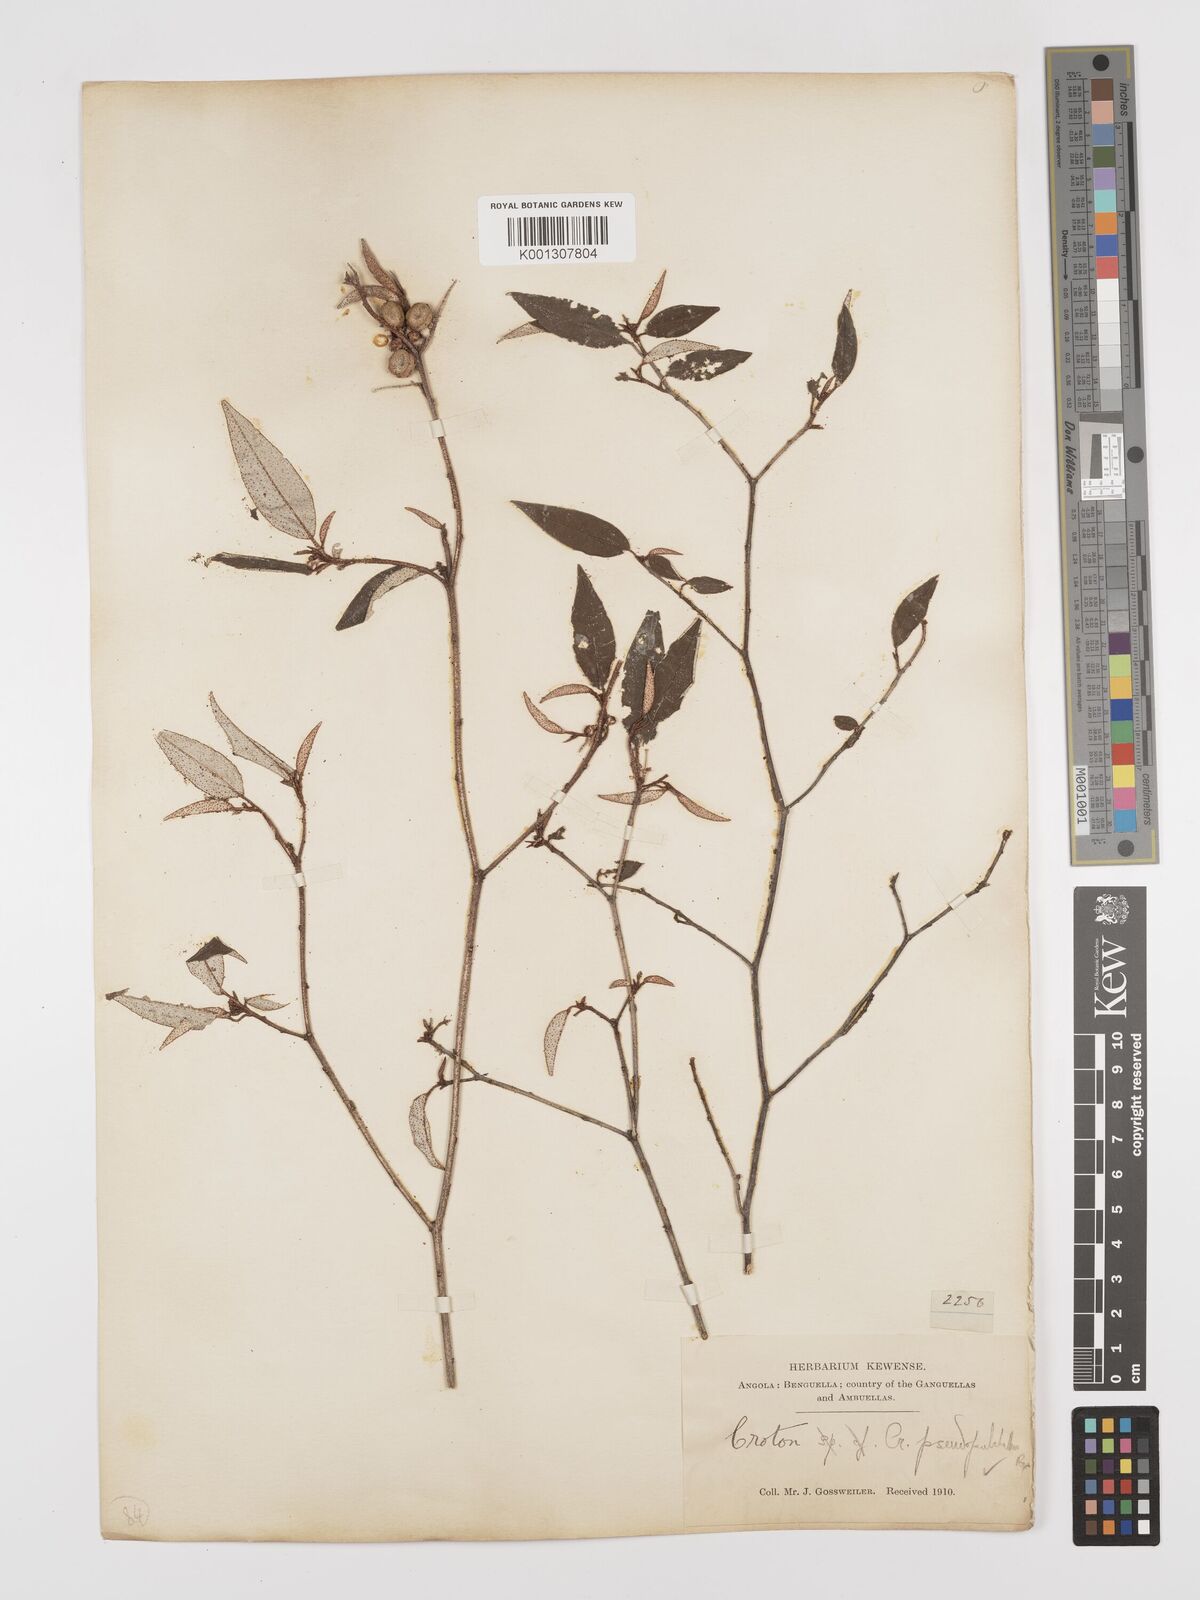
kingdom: Plantae
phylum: Tracheophyta
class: Magnoliopsida
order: Malpighiales
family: Euphorbiaceae
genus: Croton
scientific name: Croton pseudopulchellus
